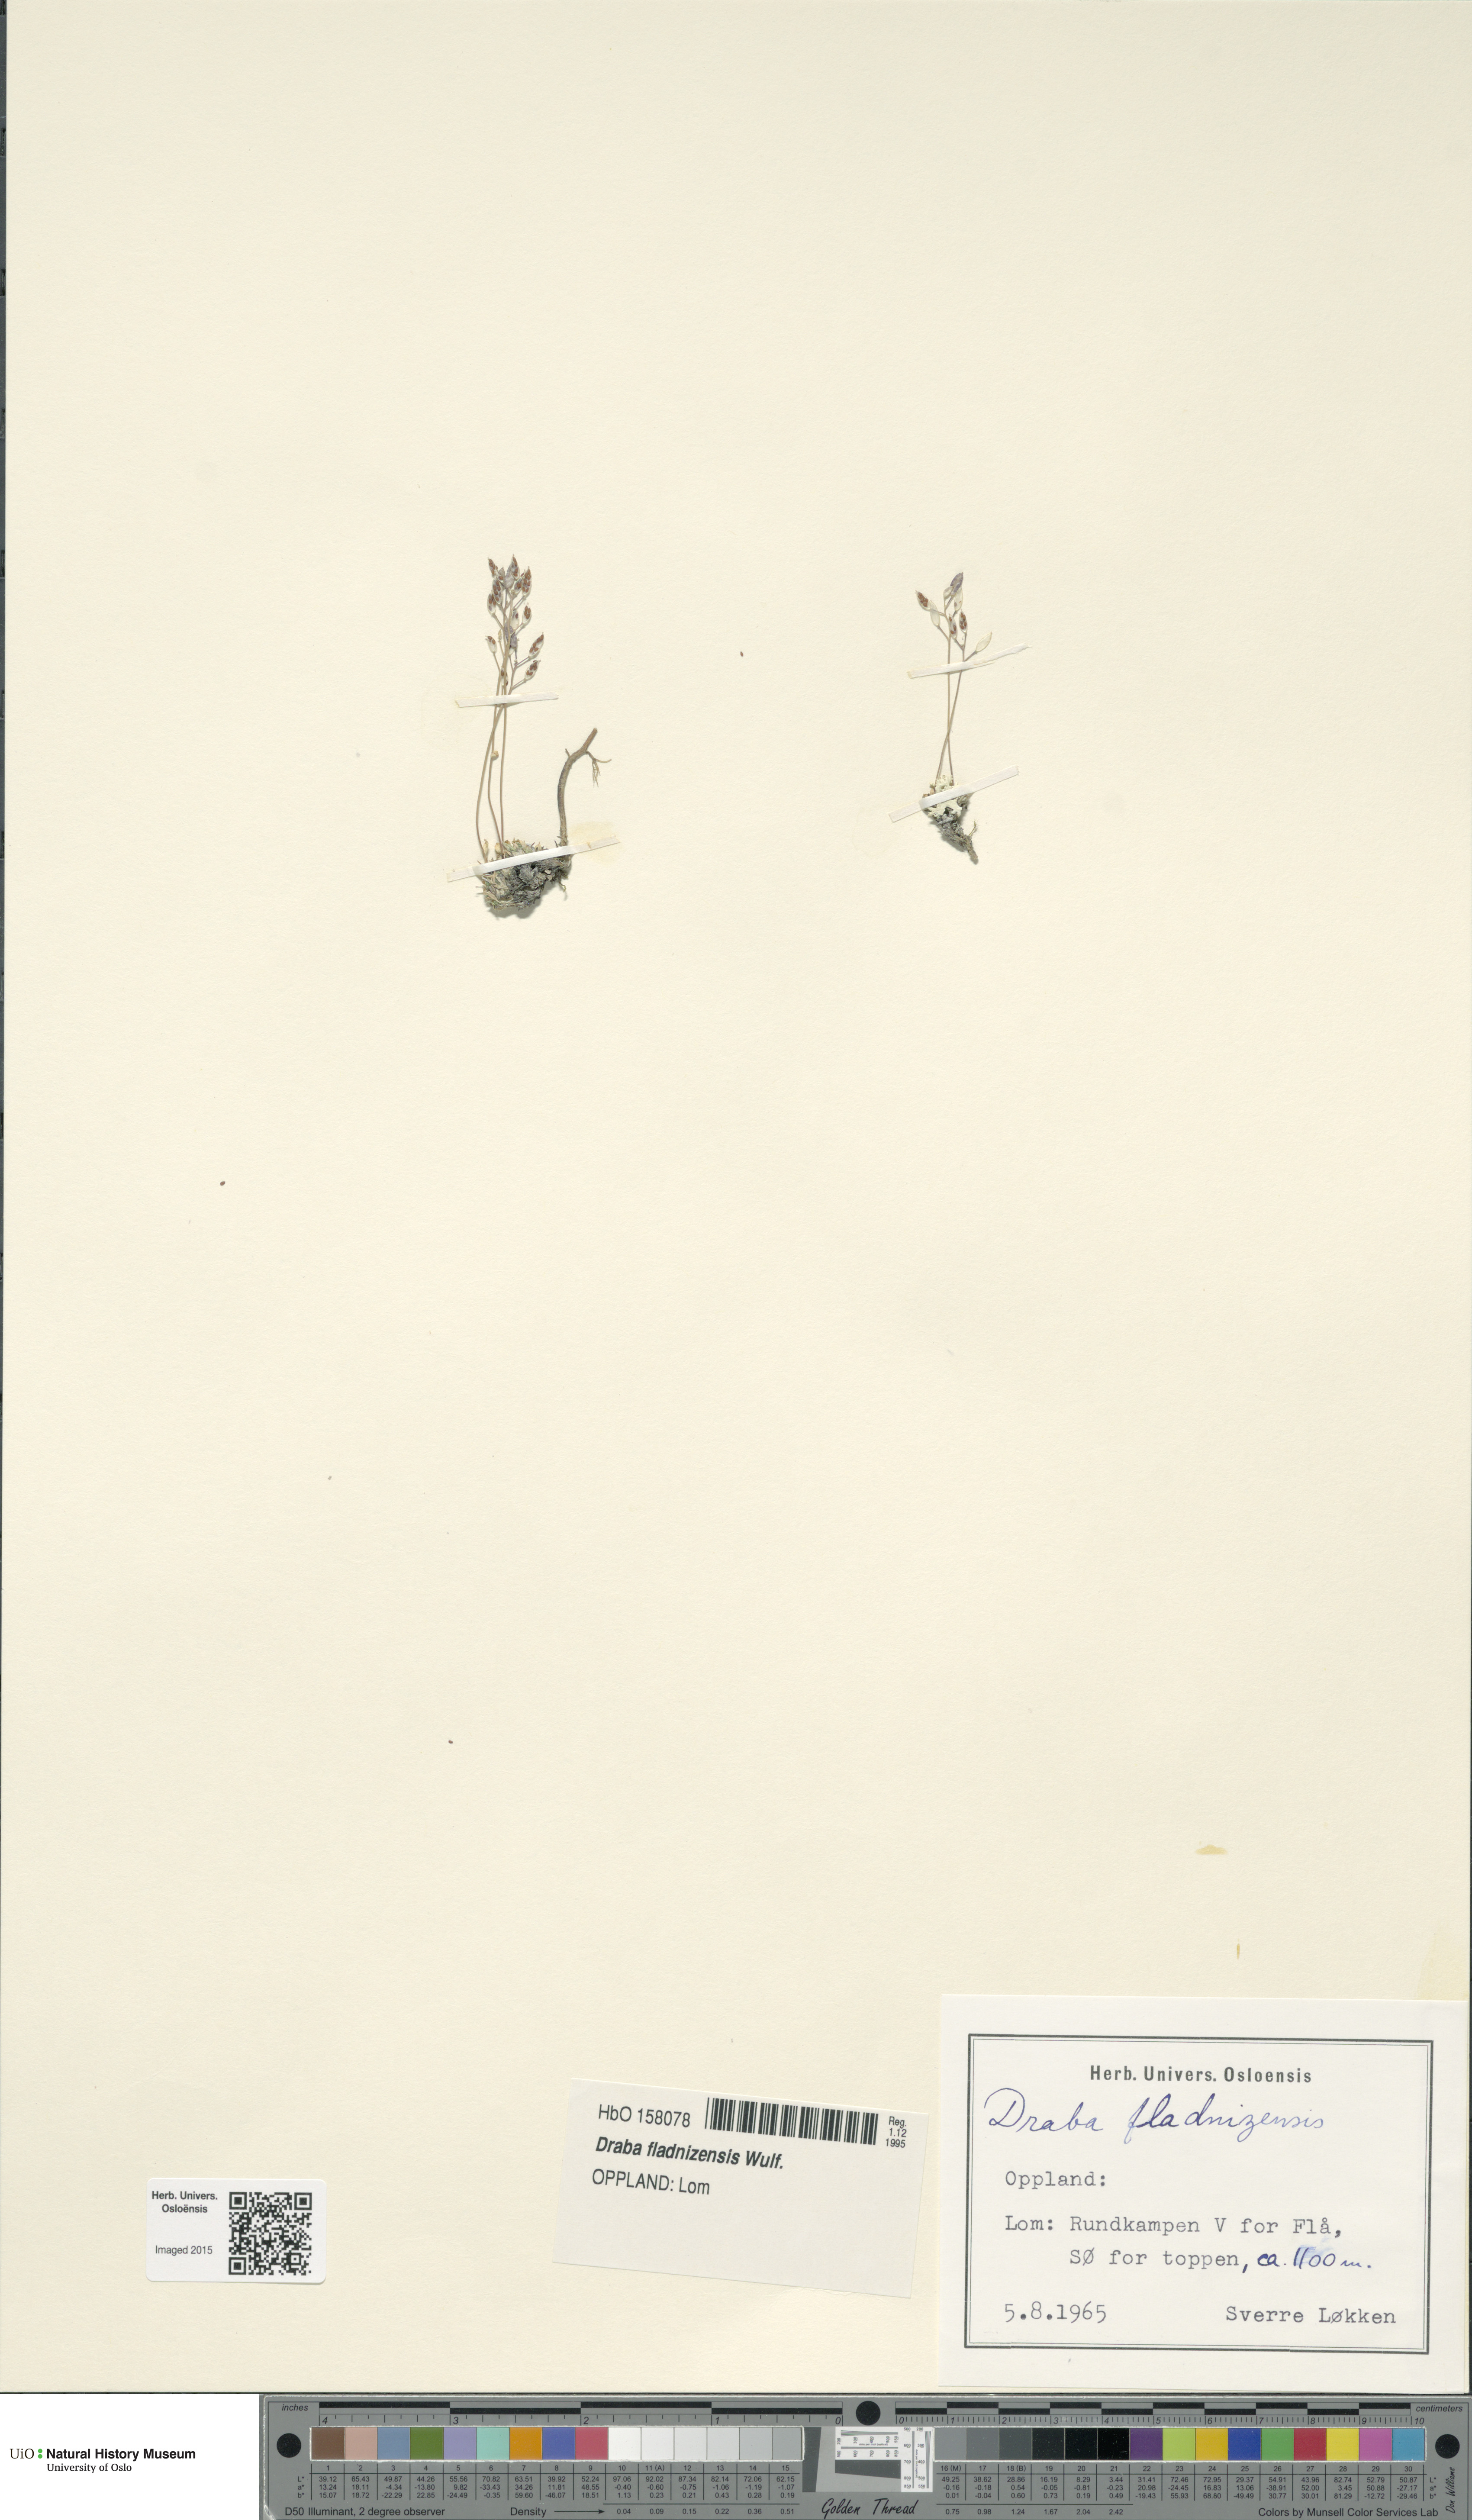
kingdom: Plantae
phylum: Tracheophyta
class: Magnoliopsida
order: Brassicales
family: Brassicaceae
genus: Draba
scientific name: Draba fladnizensis
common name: Austrian draba
